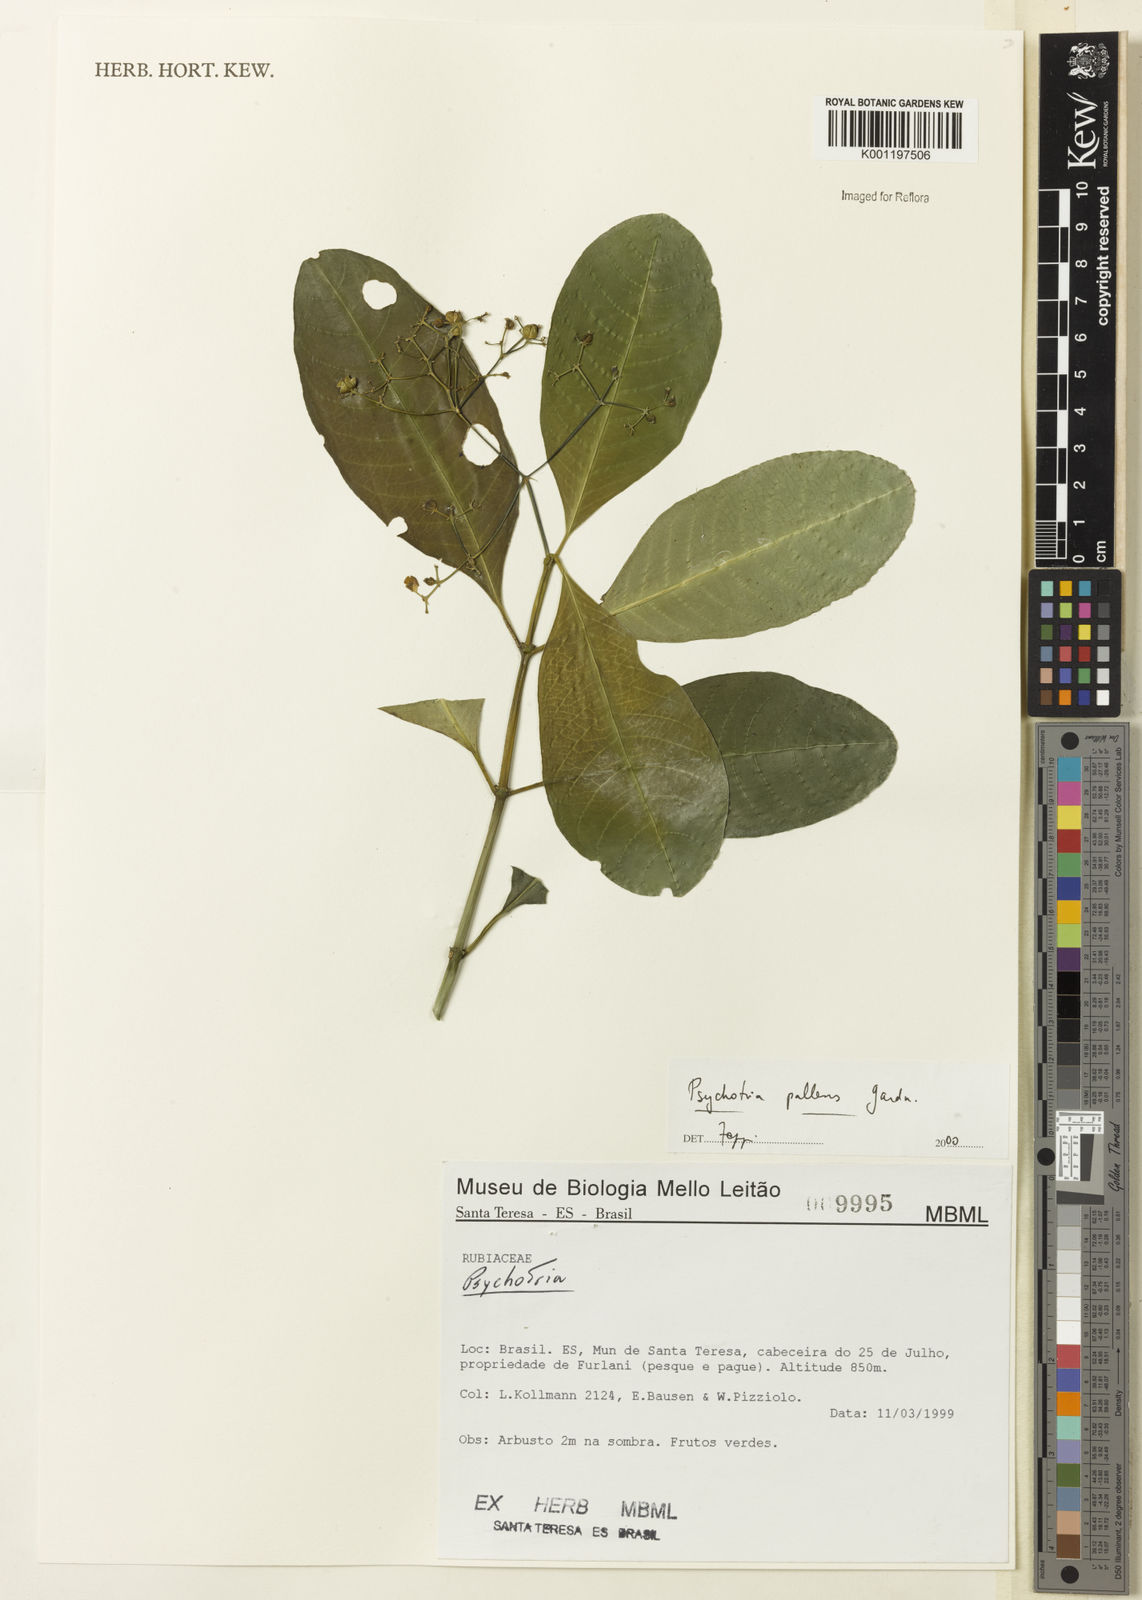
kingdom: Plantae
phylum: Tracheophyta
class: Magnoliopsida
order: Gentianales
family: Rubiaceae
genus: Psychotria
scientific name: Psychotria pallens
